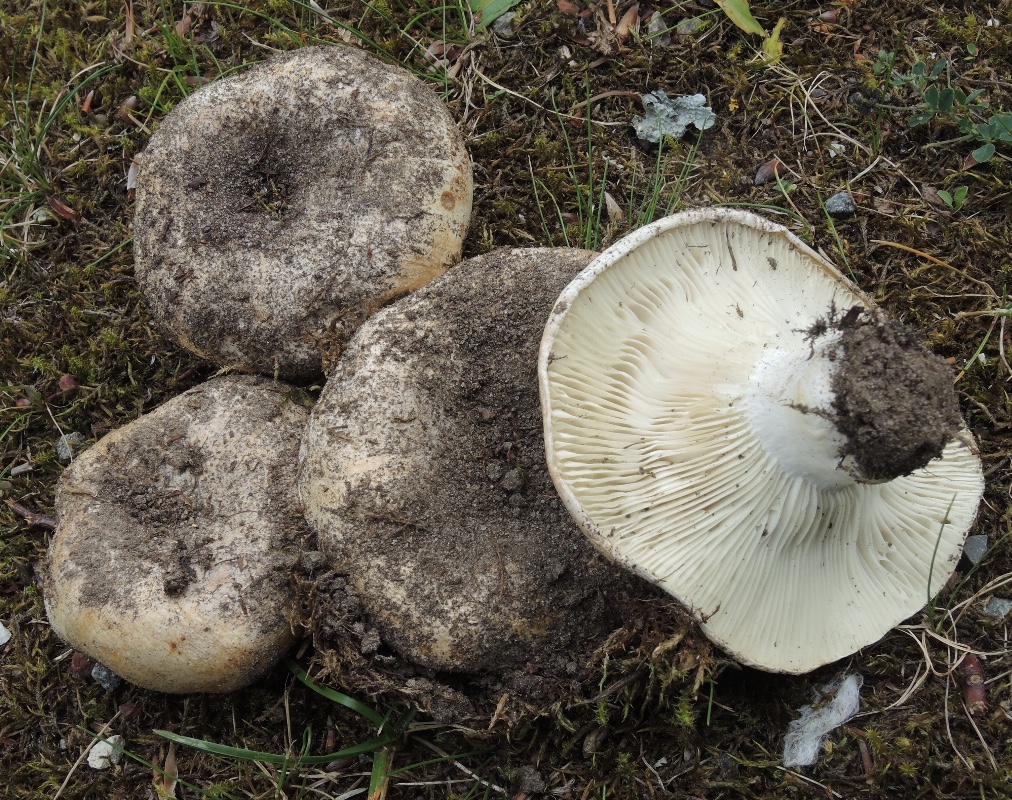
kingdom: Fungi
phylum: Basidiomycota
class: Agaricomycetes
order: Russulales
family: Russulaceae
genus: Russula
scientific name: Russula chloroides
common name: grønhalset tragt-skørhat
